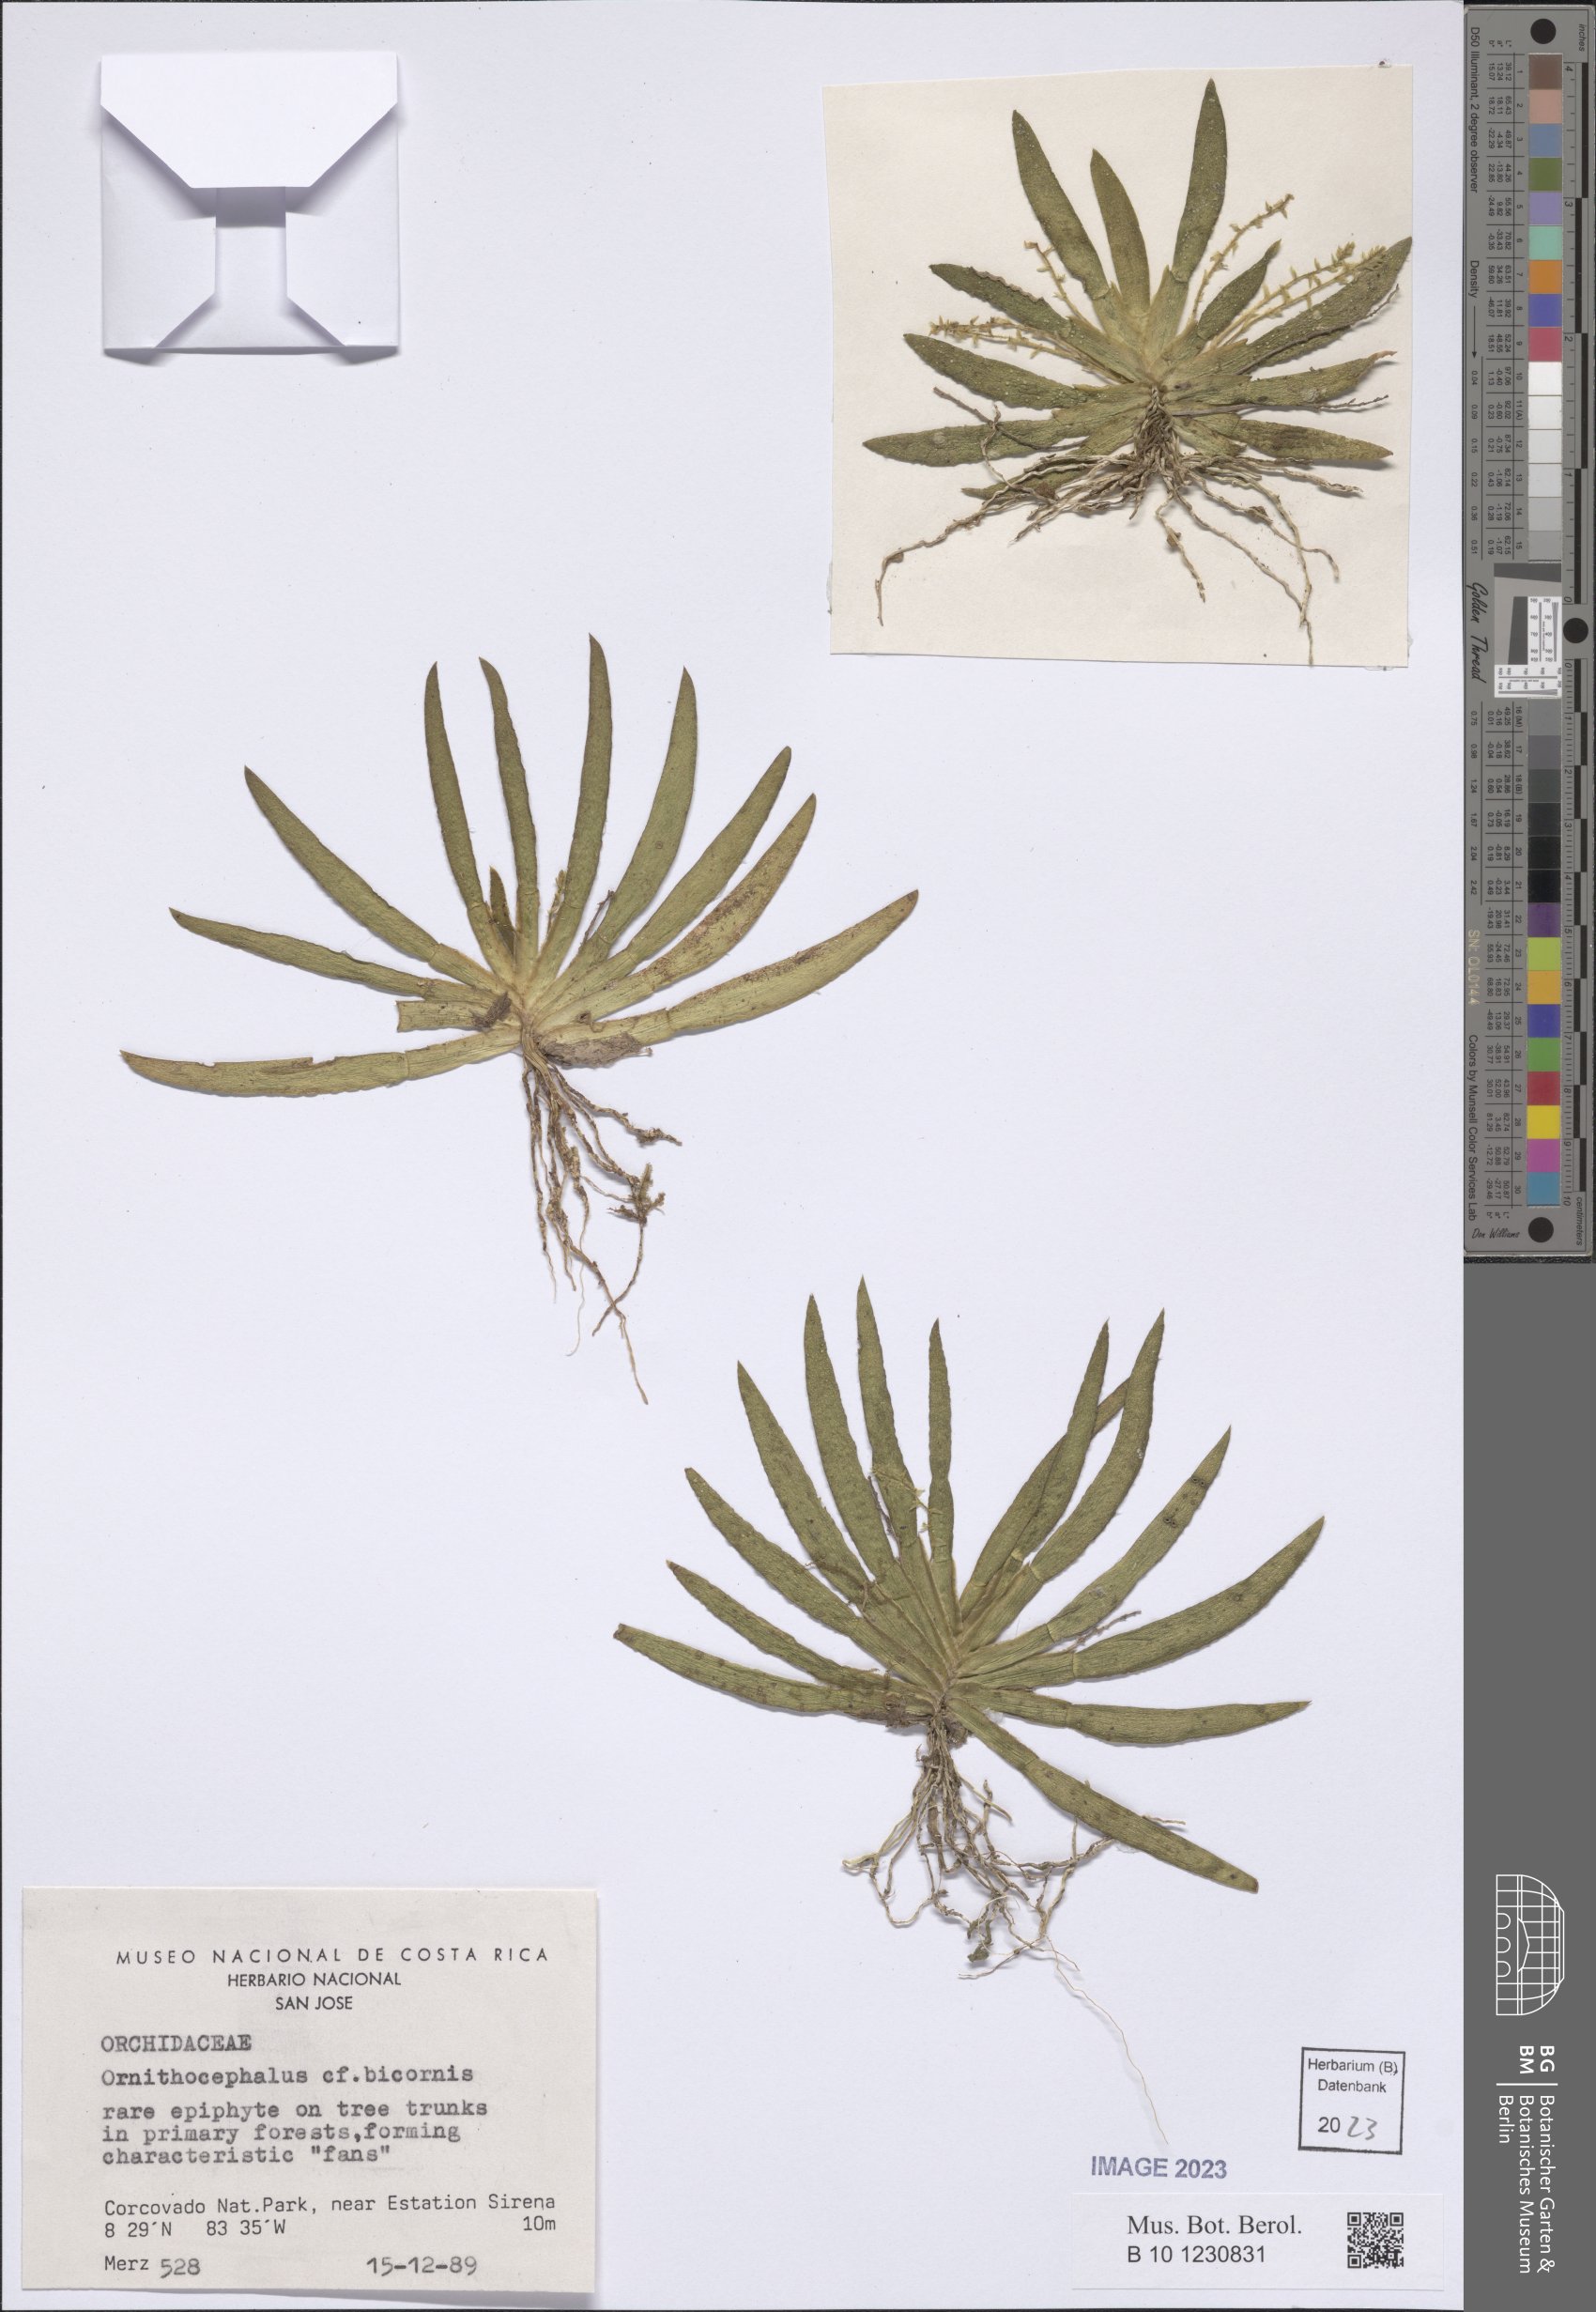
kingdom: Plantae
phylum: Tracheophyta
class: Liliopsida
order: Asparagales
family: Orchidaceae
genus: Ornithocephalus
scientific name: Ornithocephalus bicornis
